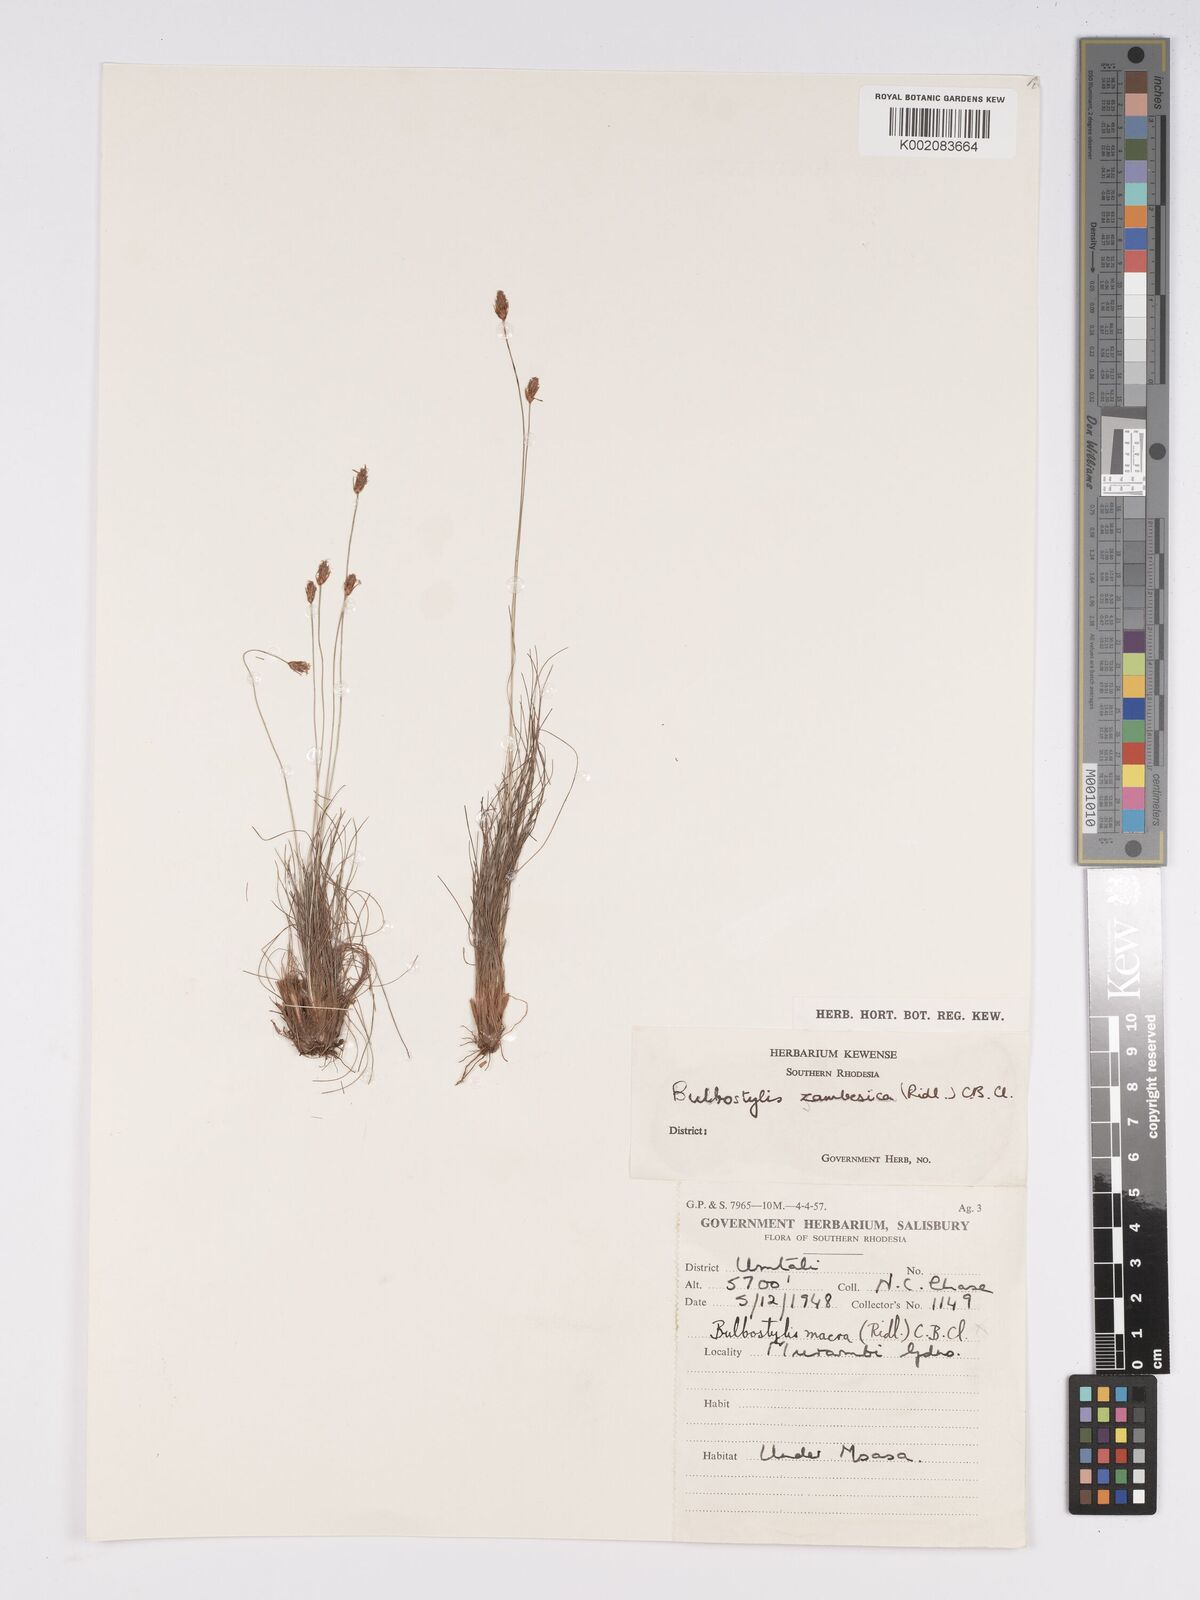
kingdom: Plantae
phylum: Tracheophyta
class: Liliopsida
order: Poales
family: Cyperaceae
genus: Bulbostylis
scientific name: Bulbostylis macra
